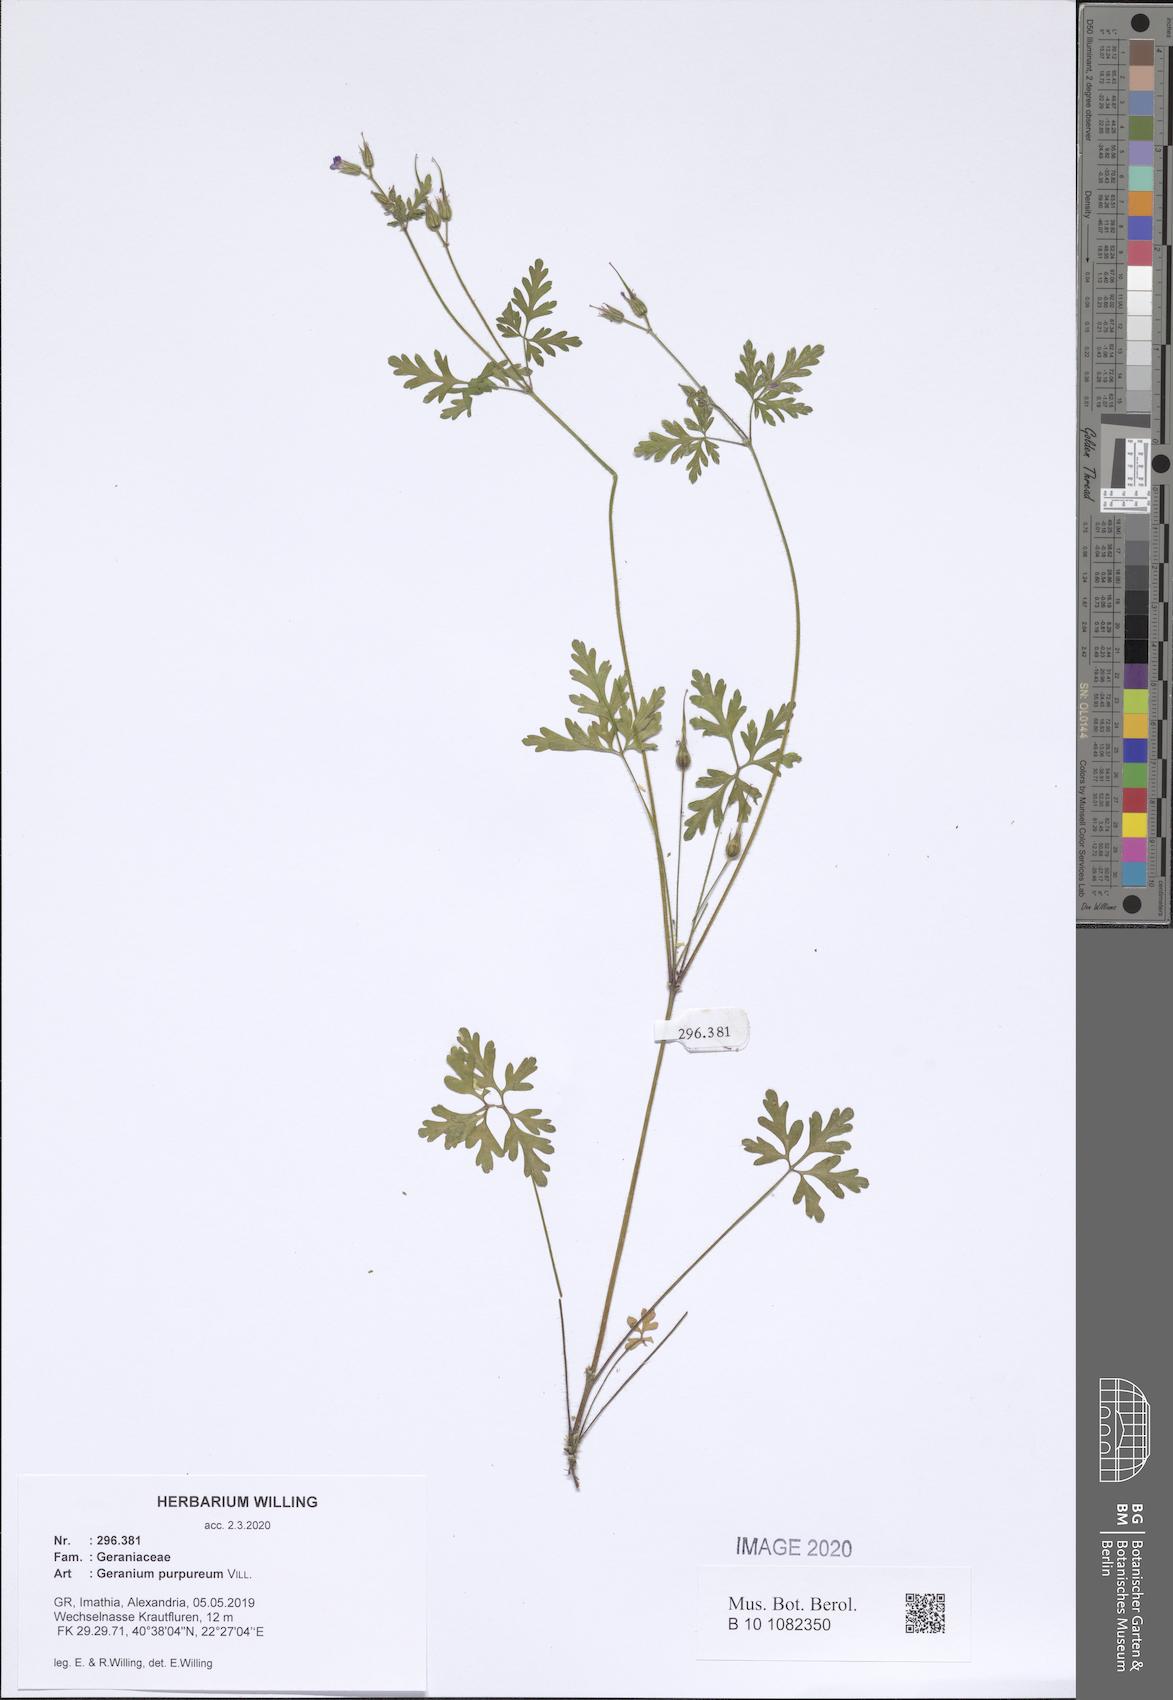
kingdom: Plantae
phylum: Tracheophyta
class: Magnoliopsida
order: Geraniales
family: Geraniaceae
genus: Geranium
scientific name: Geranium purpureum
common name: Little-robin
